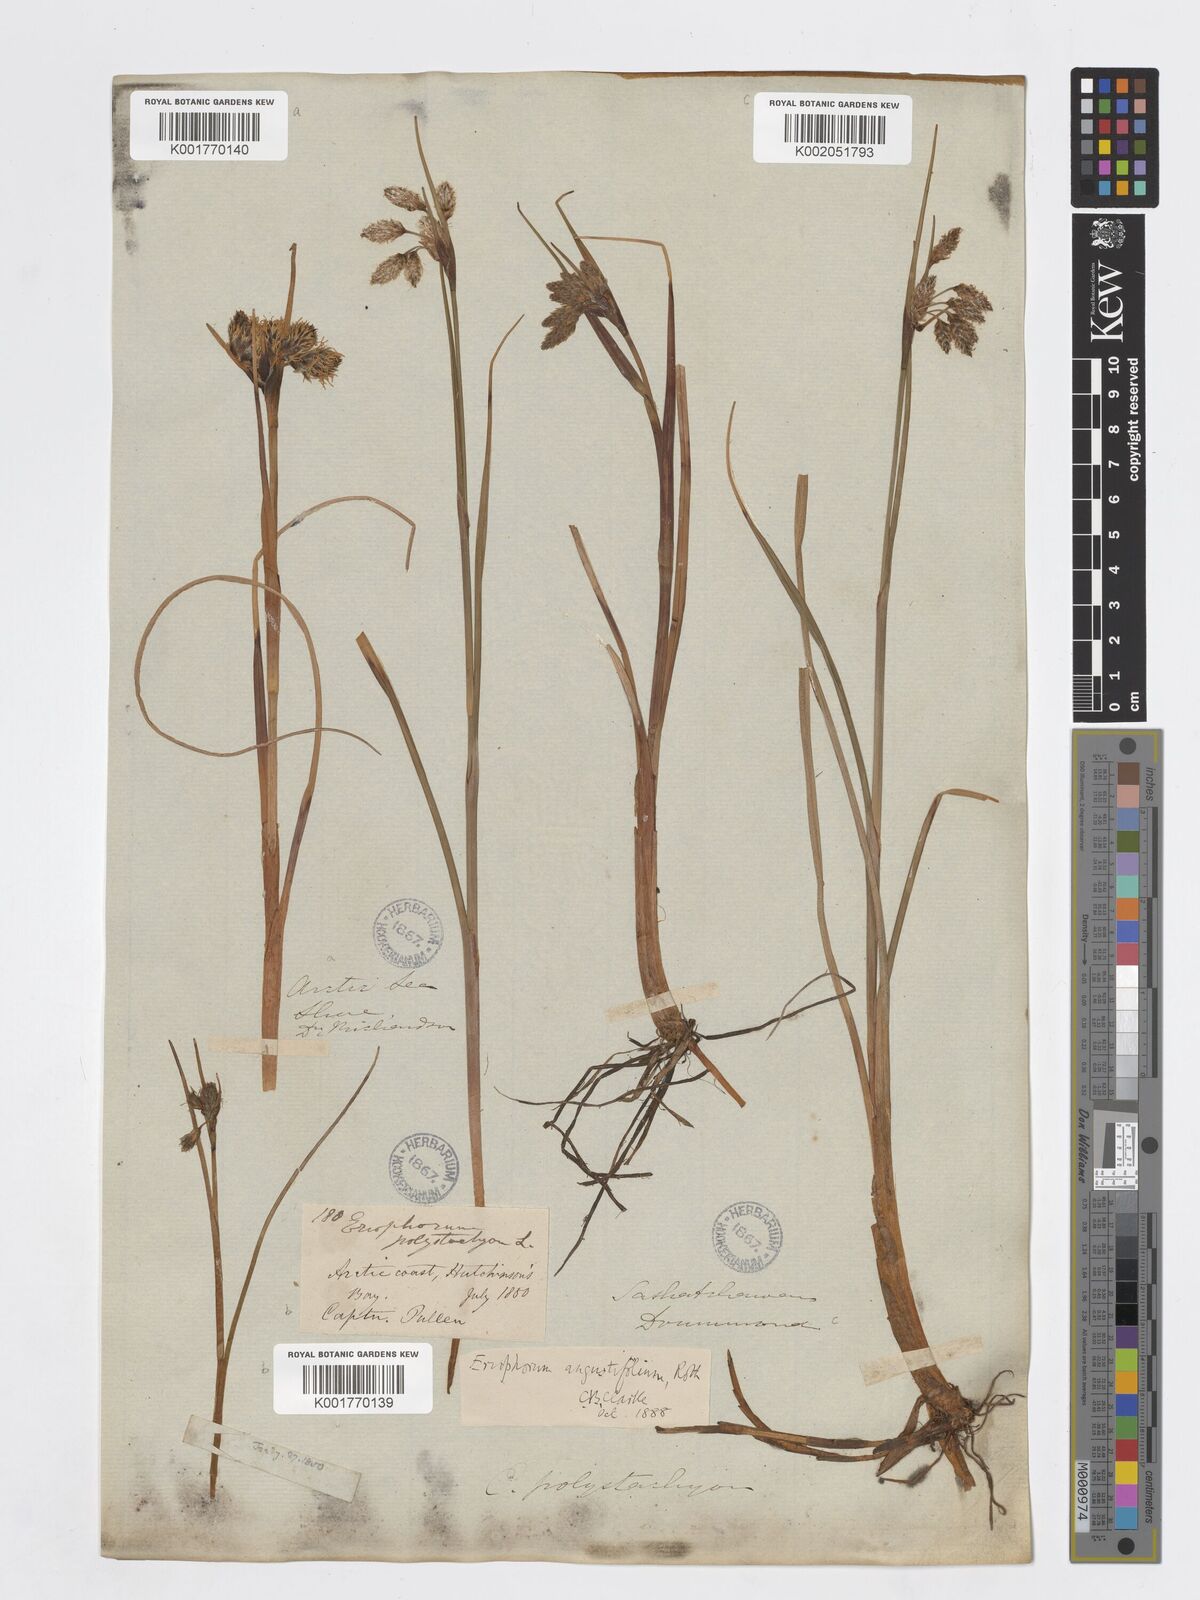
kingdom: Plantae
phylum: Tracheophyta
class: Liliopsida
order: Poales
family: Cyperaceae
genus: Eriophorum
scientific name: Eriophorum angustifolium
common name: Common cottongrass
